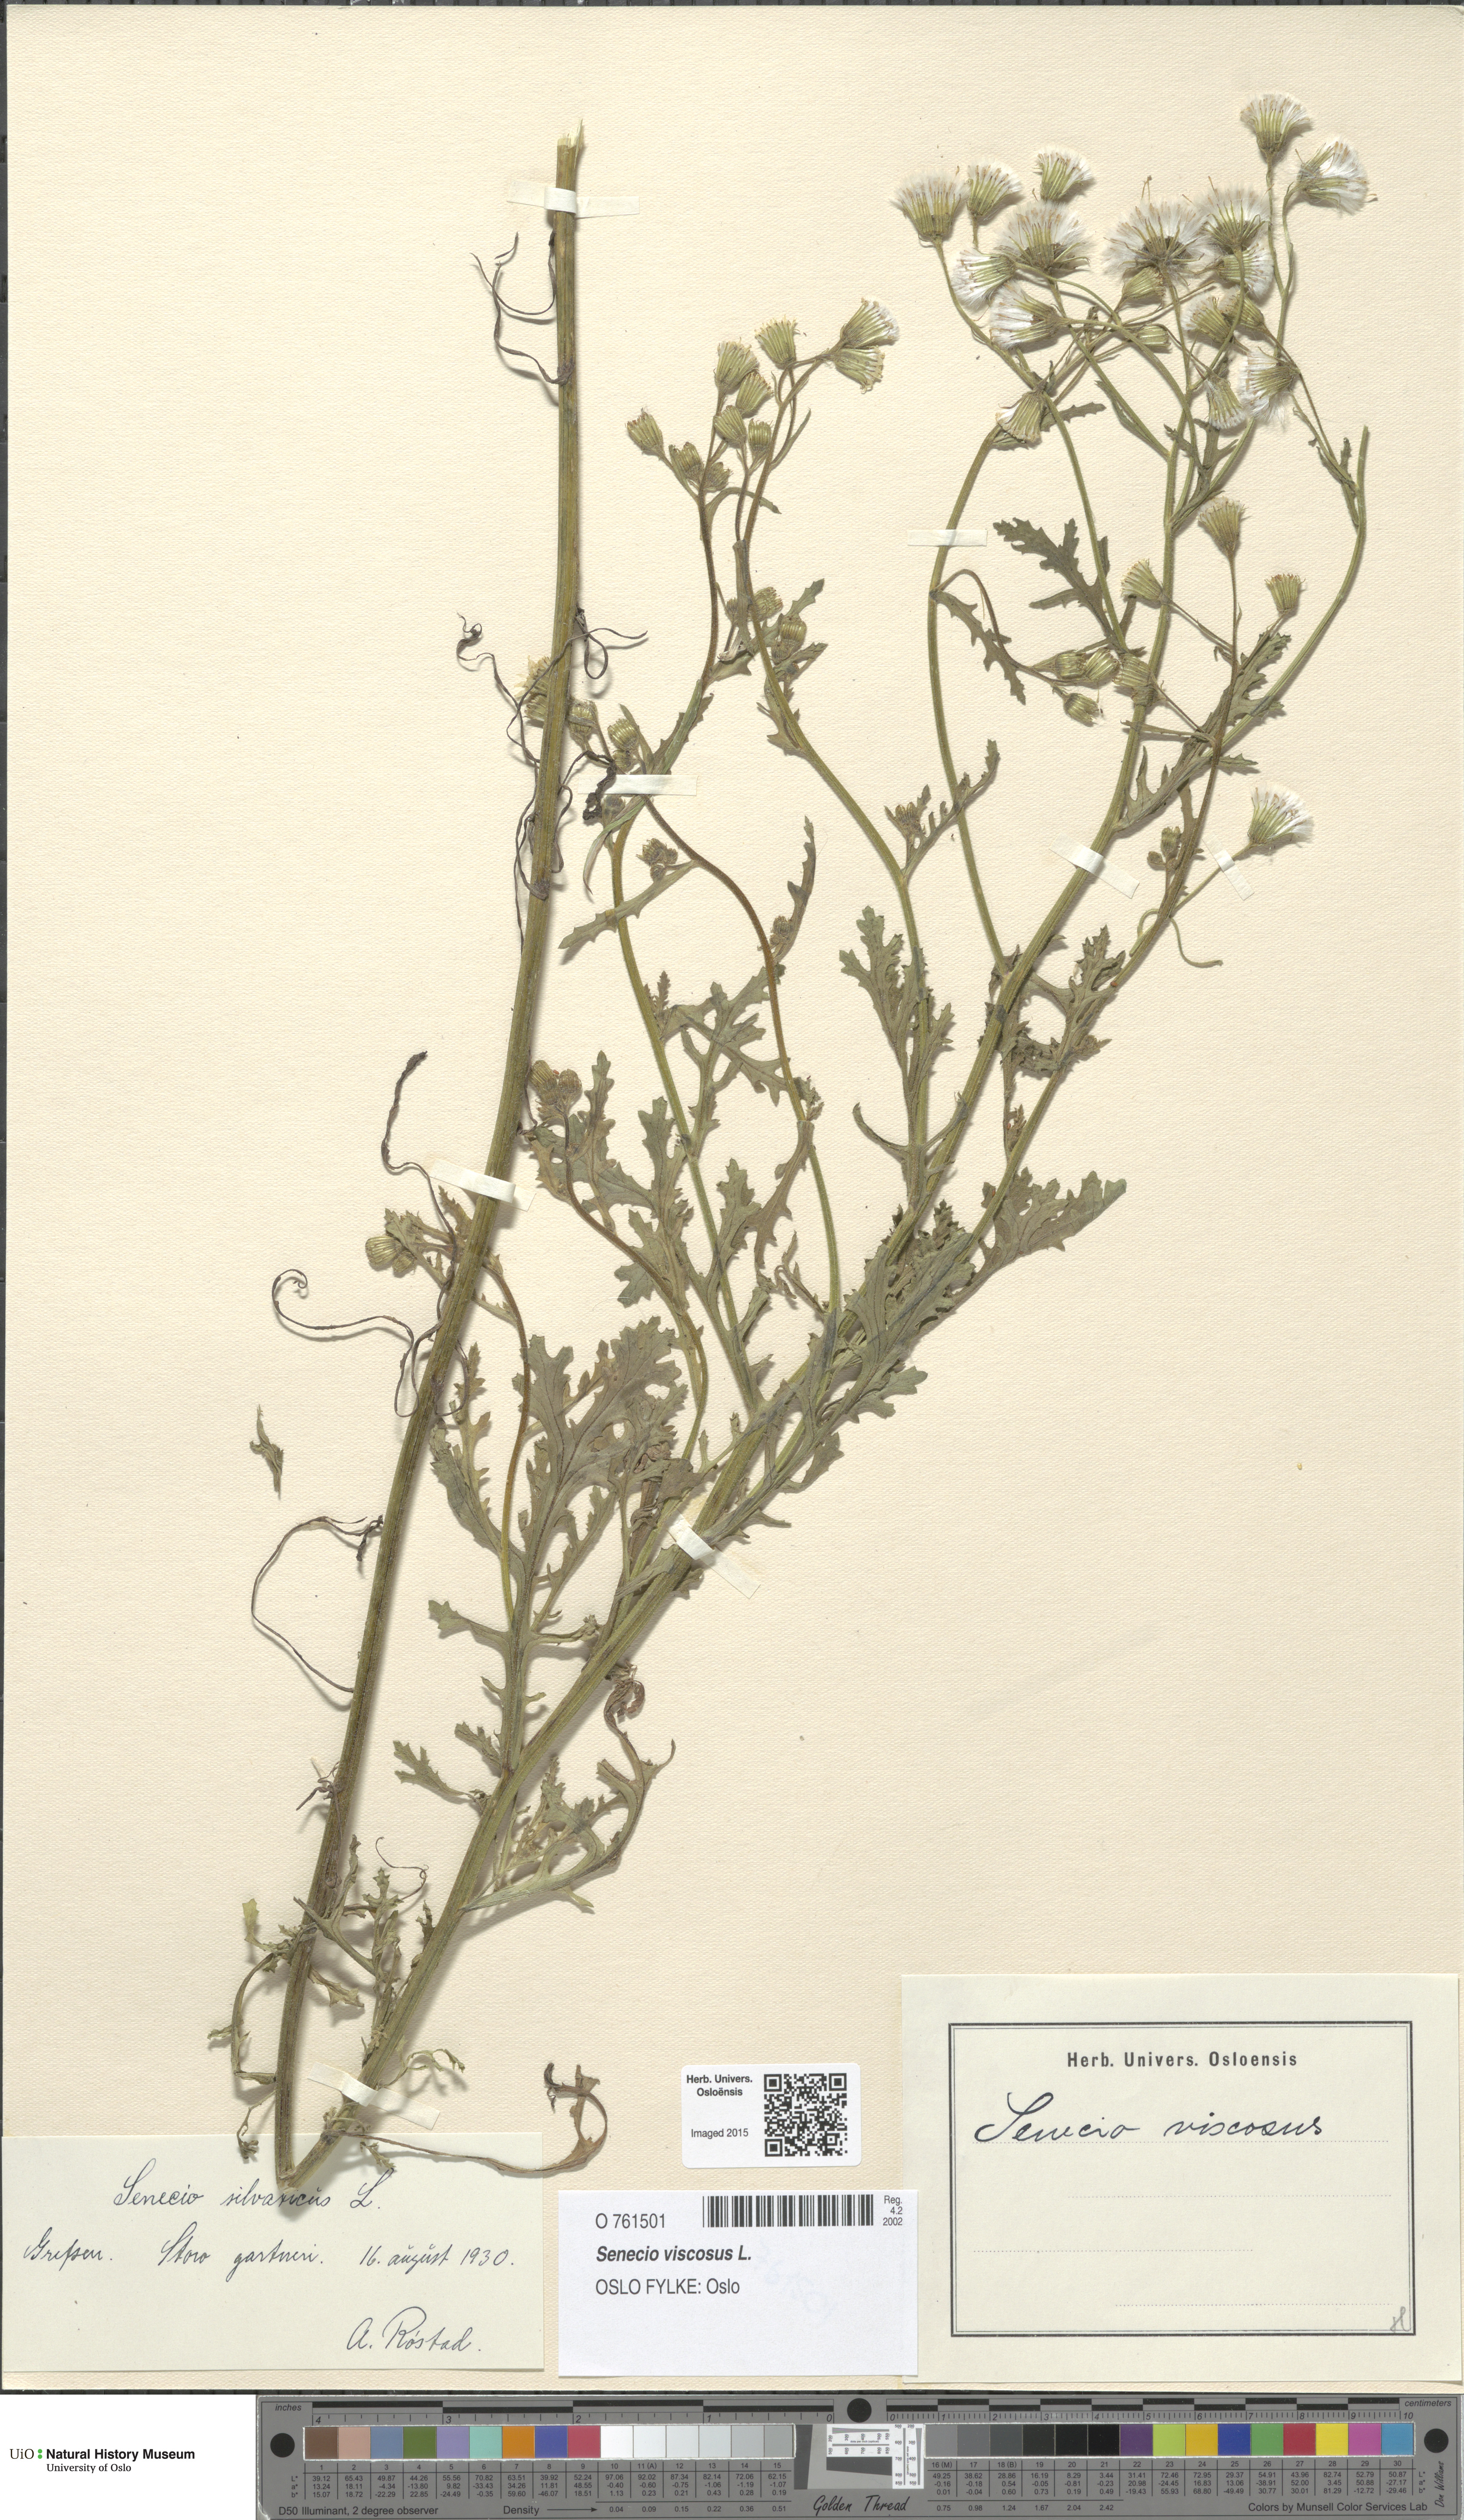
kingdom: Plantae
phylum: Tracheophyta
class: Magnoliopsida
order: Asterales
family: Asteraceae
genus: Senecio
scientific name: Senecio viscosus
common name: Sticky groundsel
